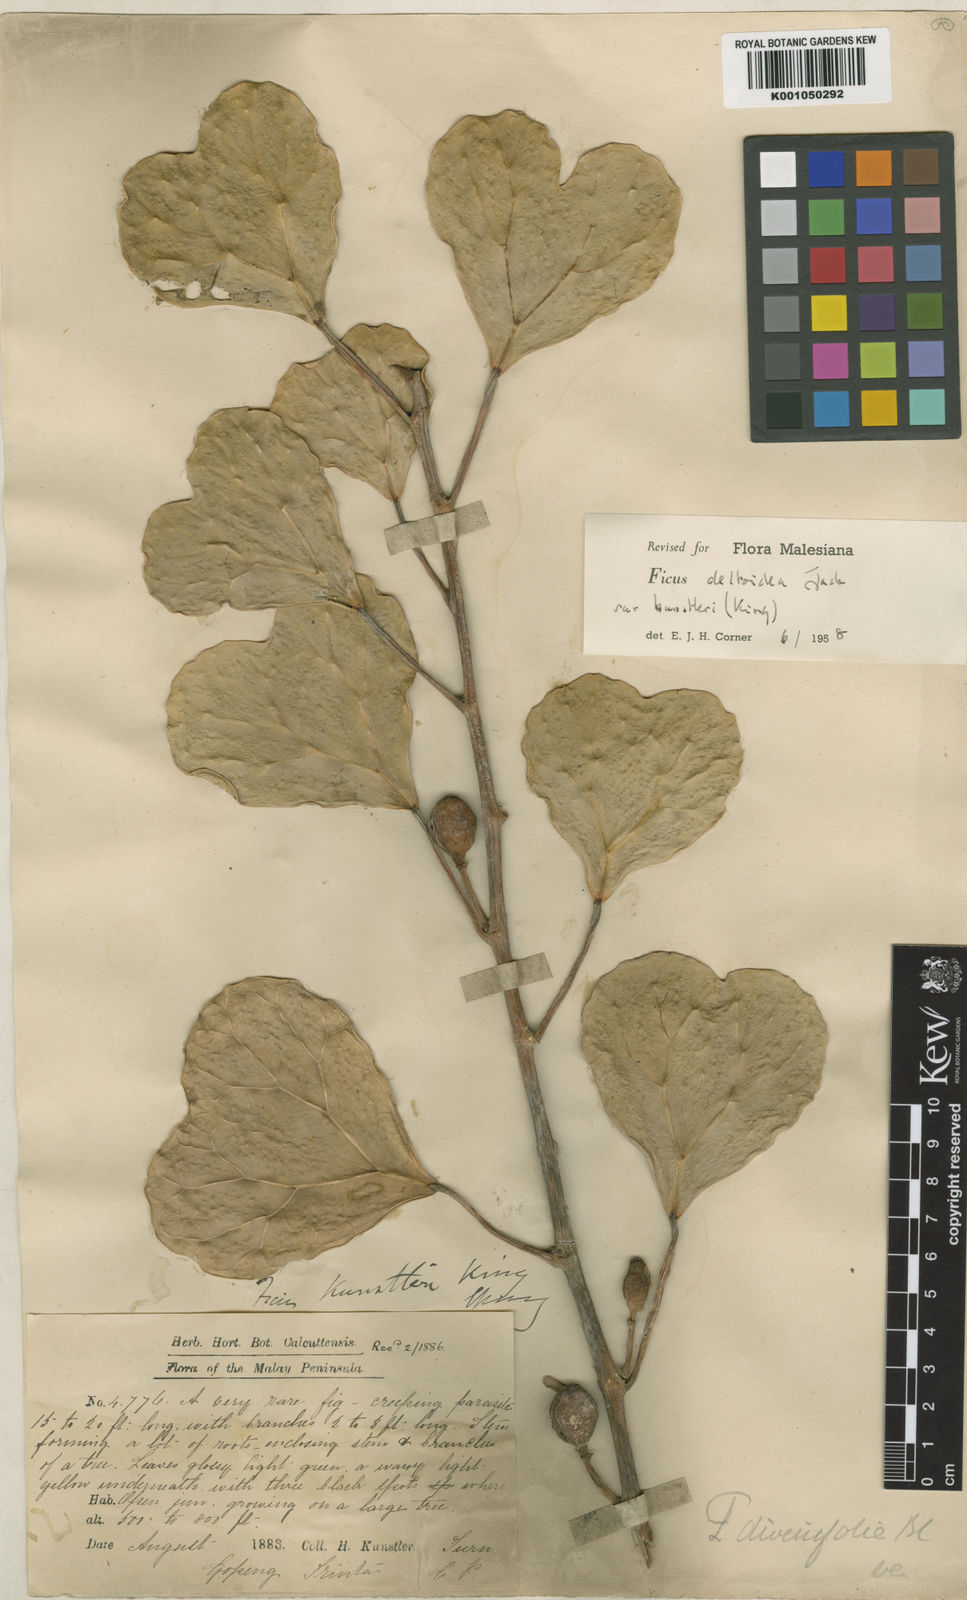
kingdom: Plantae
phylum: Tracheophyta
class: Magnoliopsida
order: Rosales
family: Moraceae
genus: Ficus
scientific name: Ficus deltoidea
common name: Mistletoe fig
